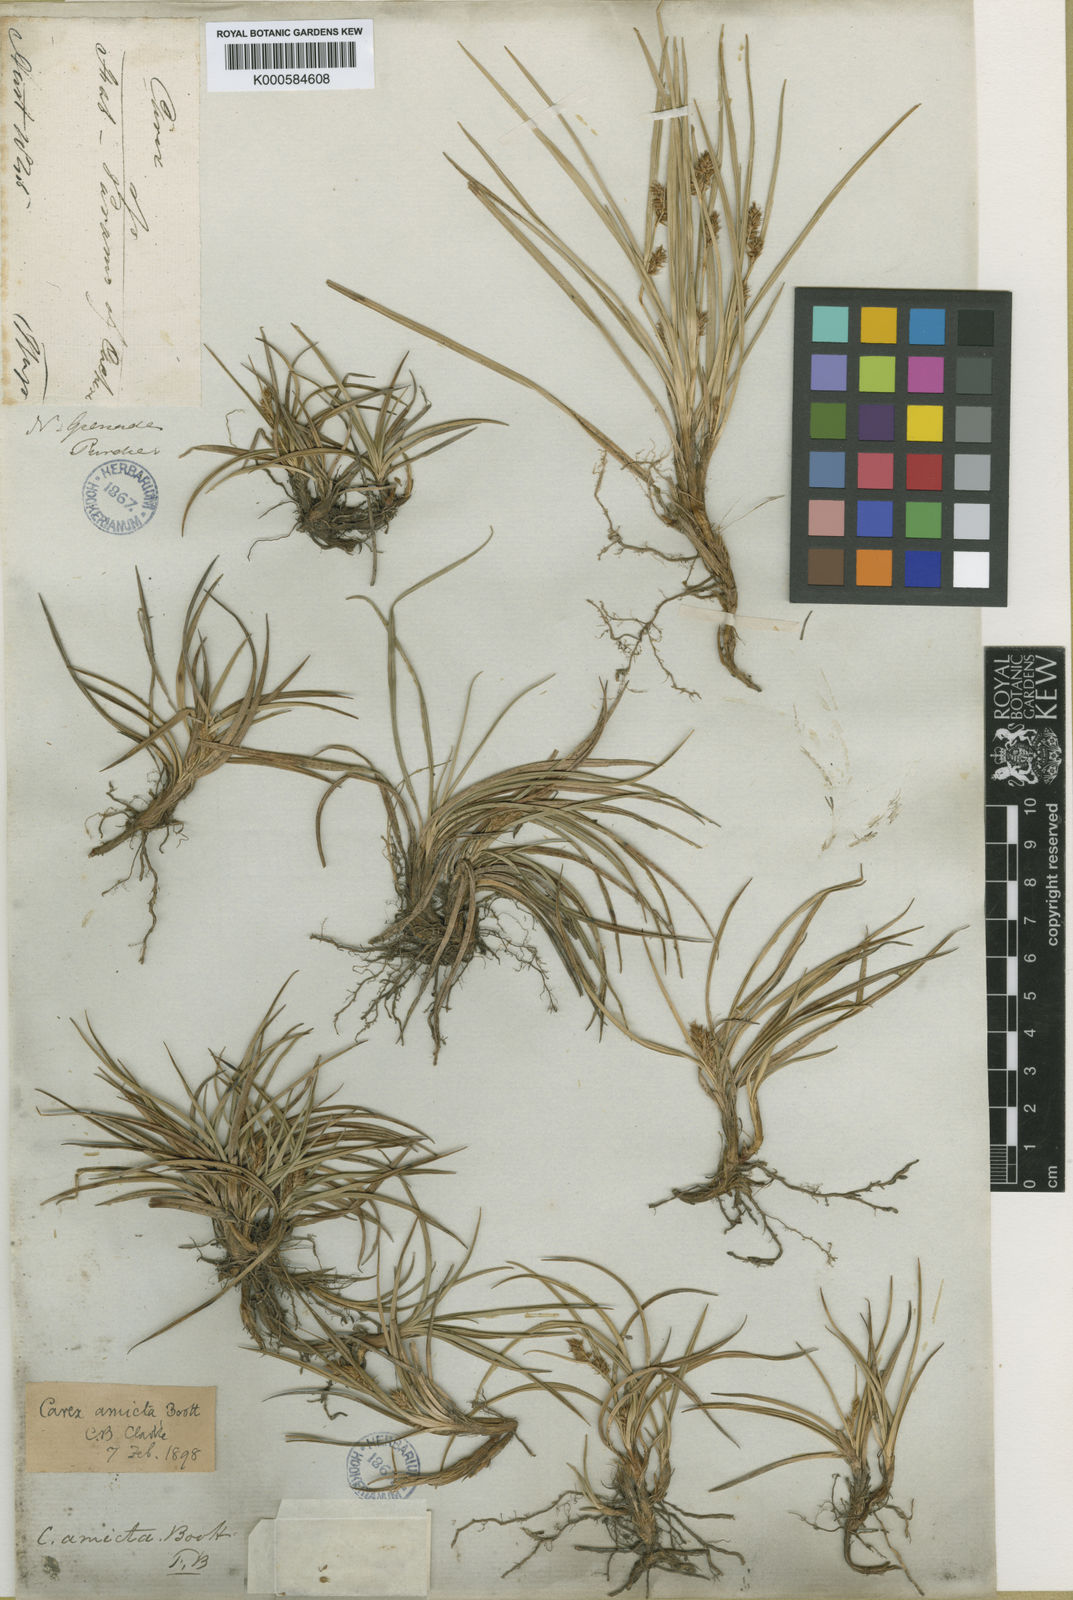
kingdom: Plantae
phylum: Tracheophyta
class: Liliopsida
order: Poales
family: Cyperaceae
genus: Carex
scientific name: Carex amicta
